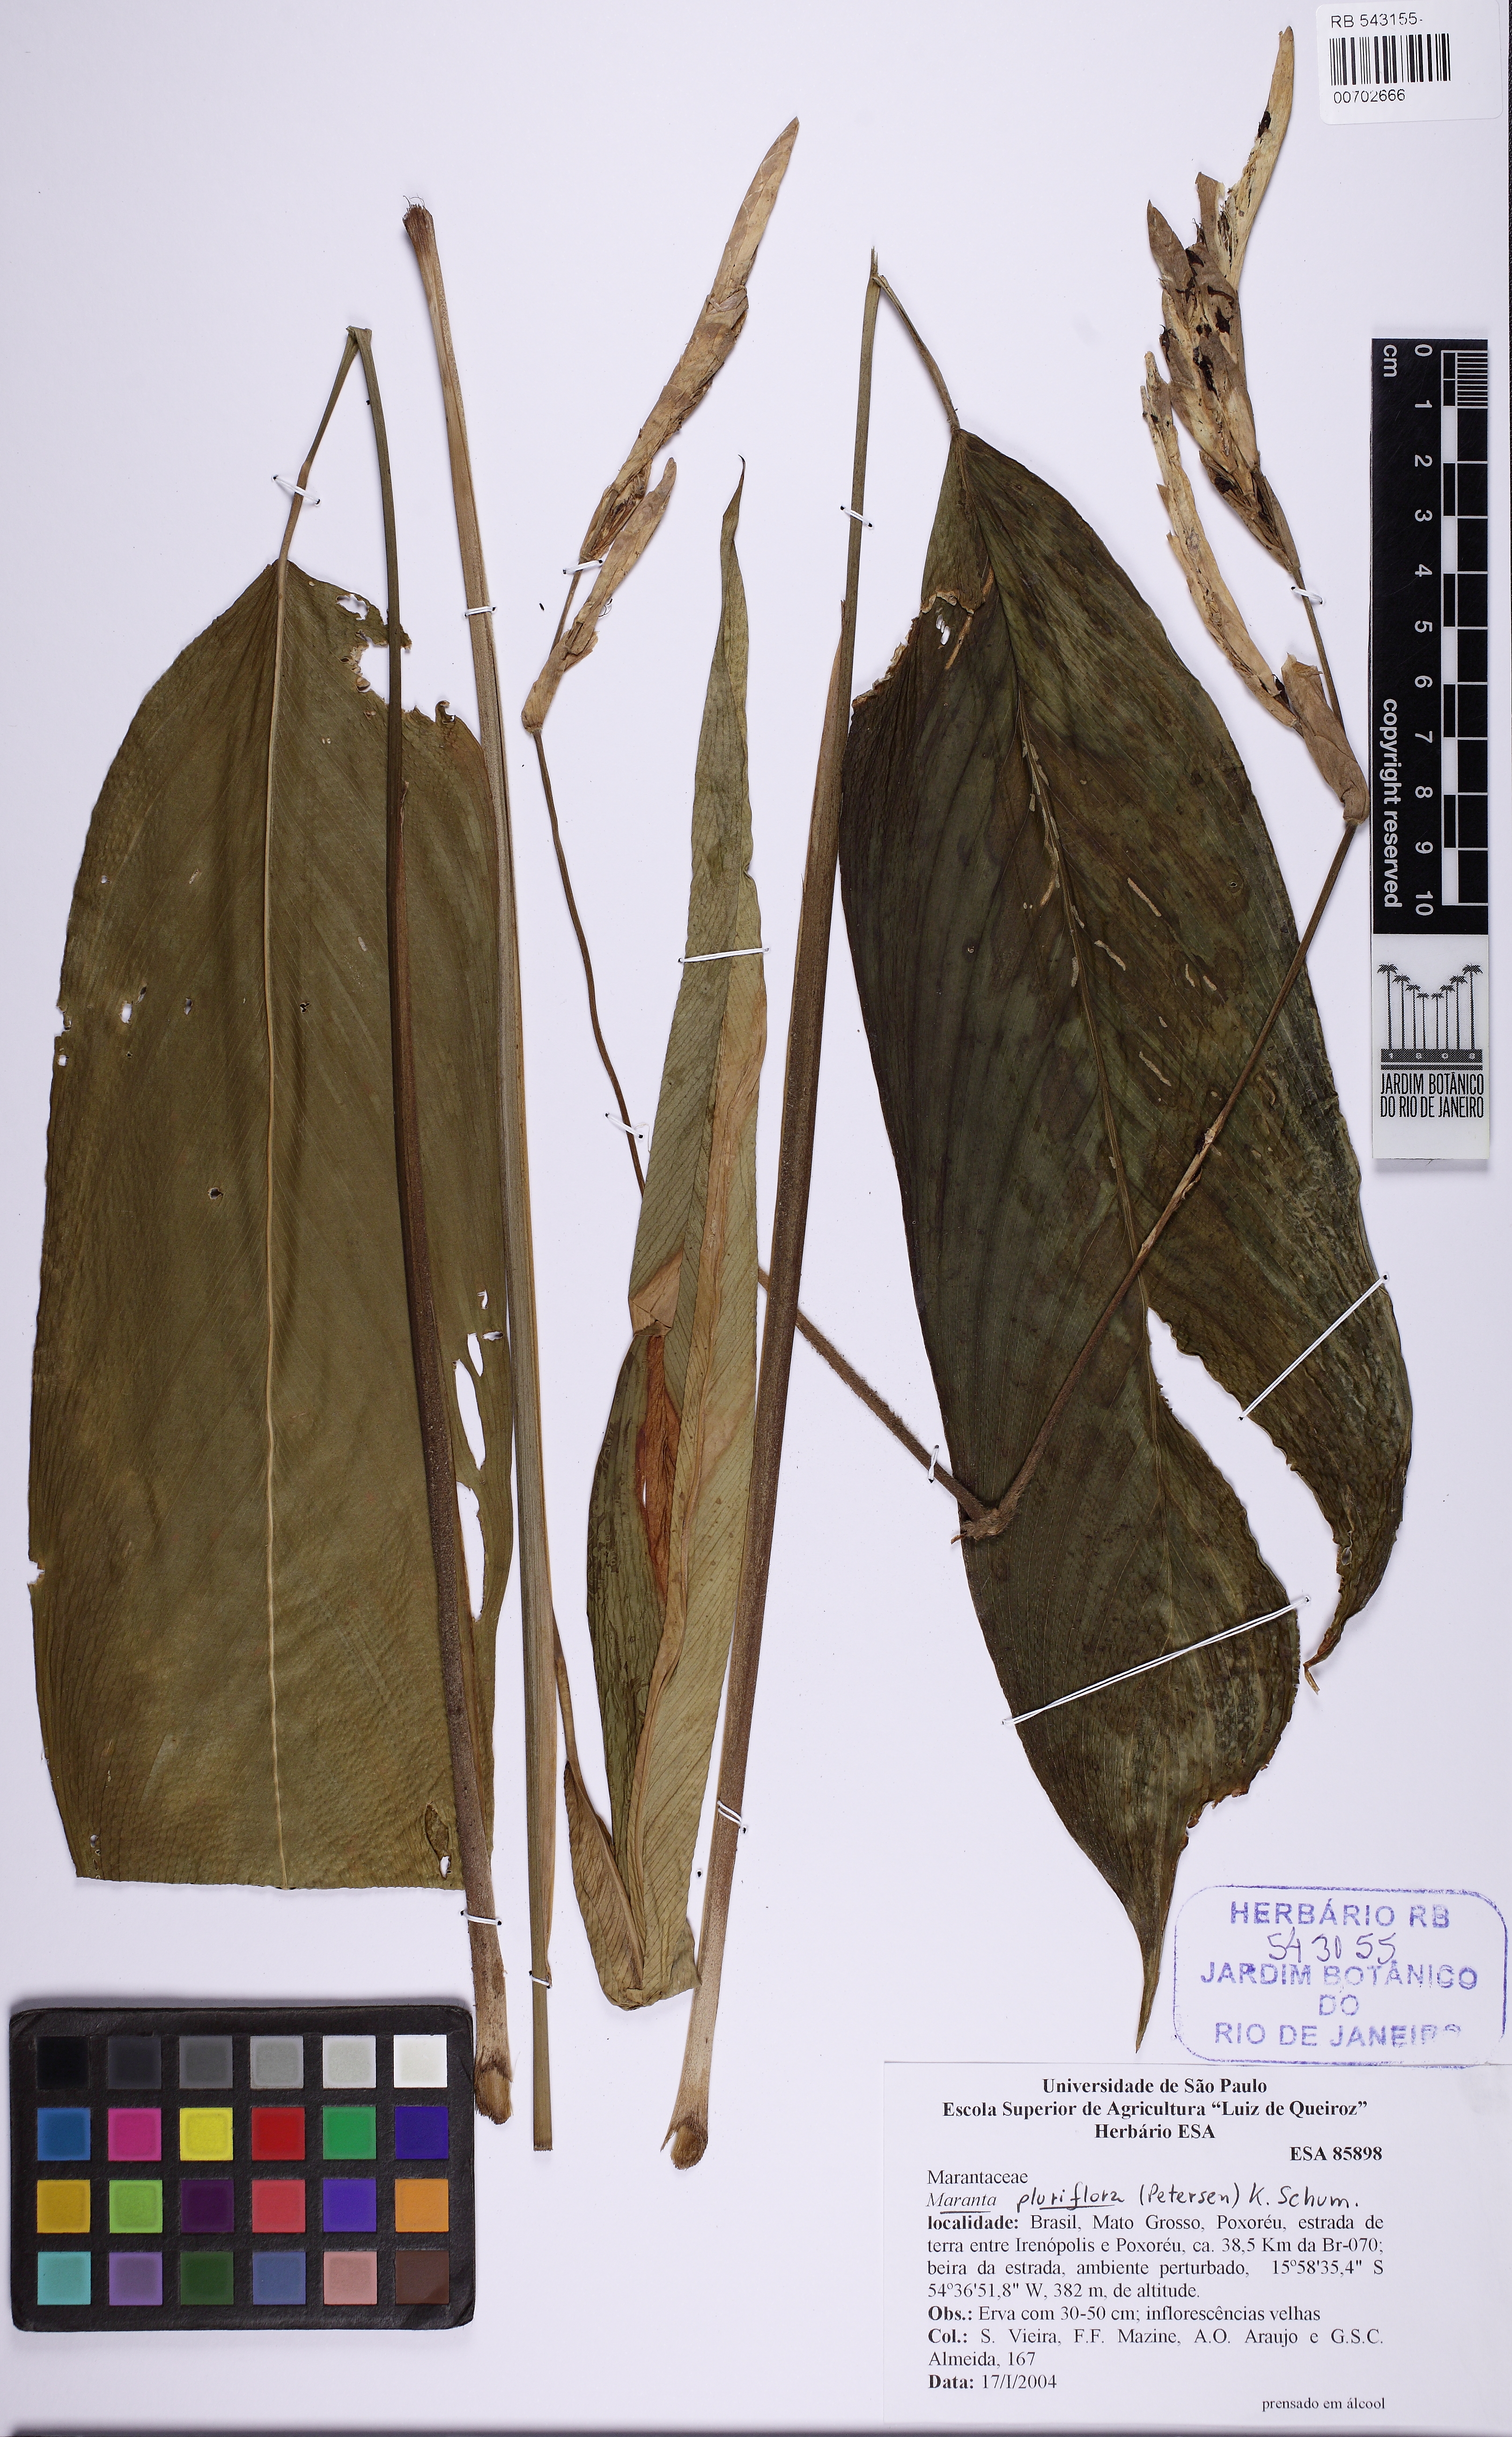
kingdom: Plantae
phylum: Tracheophyta
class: Liliopsida
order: Zingiberales
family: Marantaceae
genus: Maranta
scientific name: Maranta pluriflora
